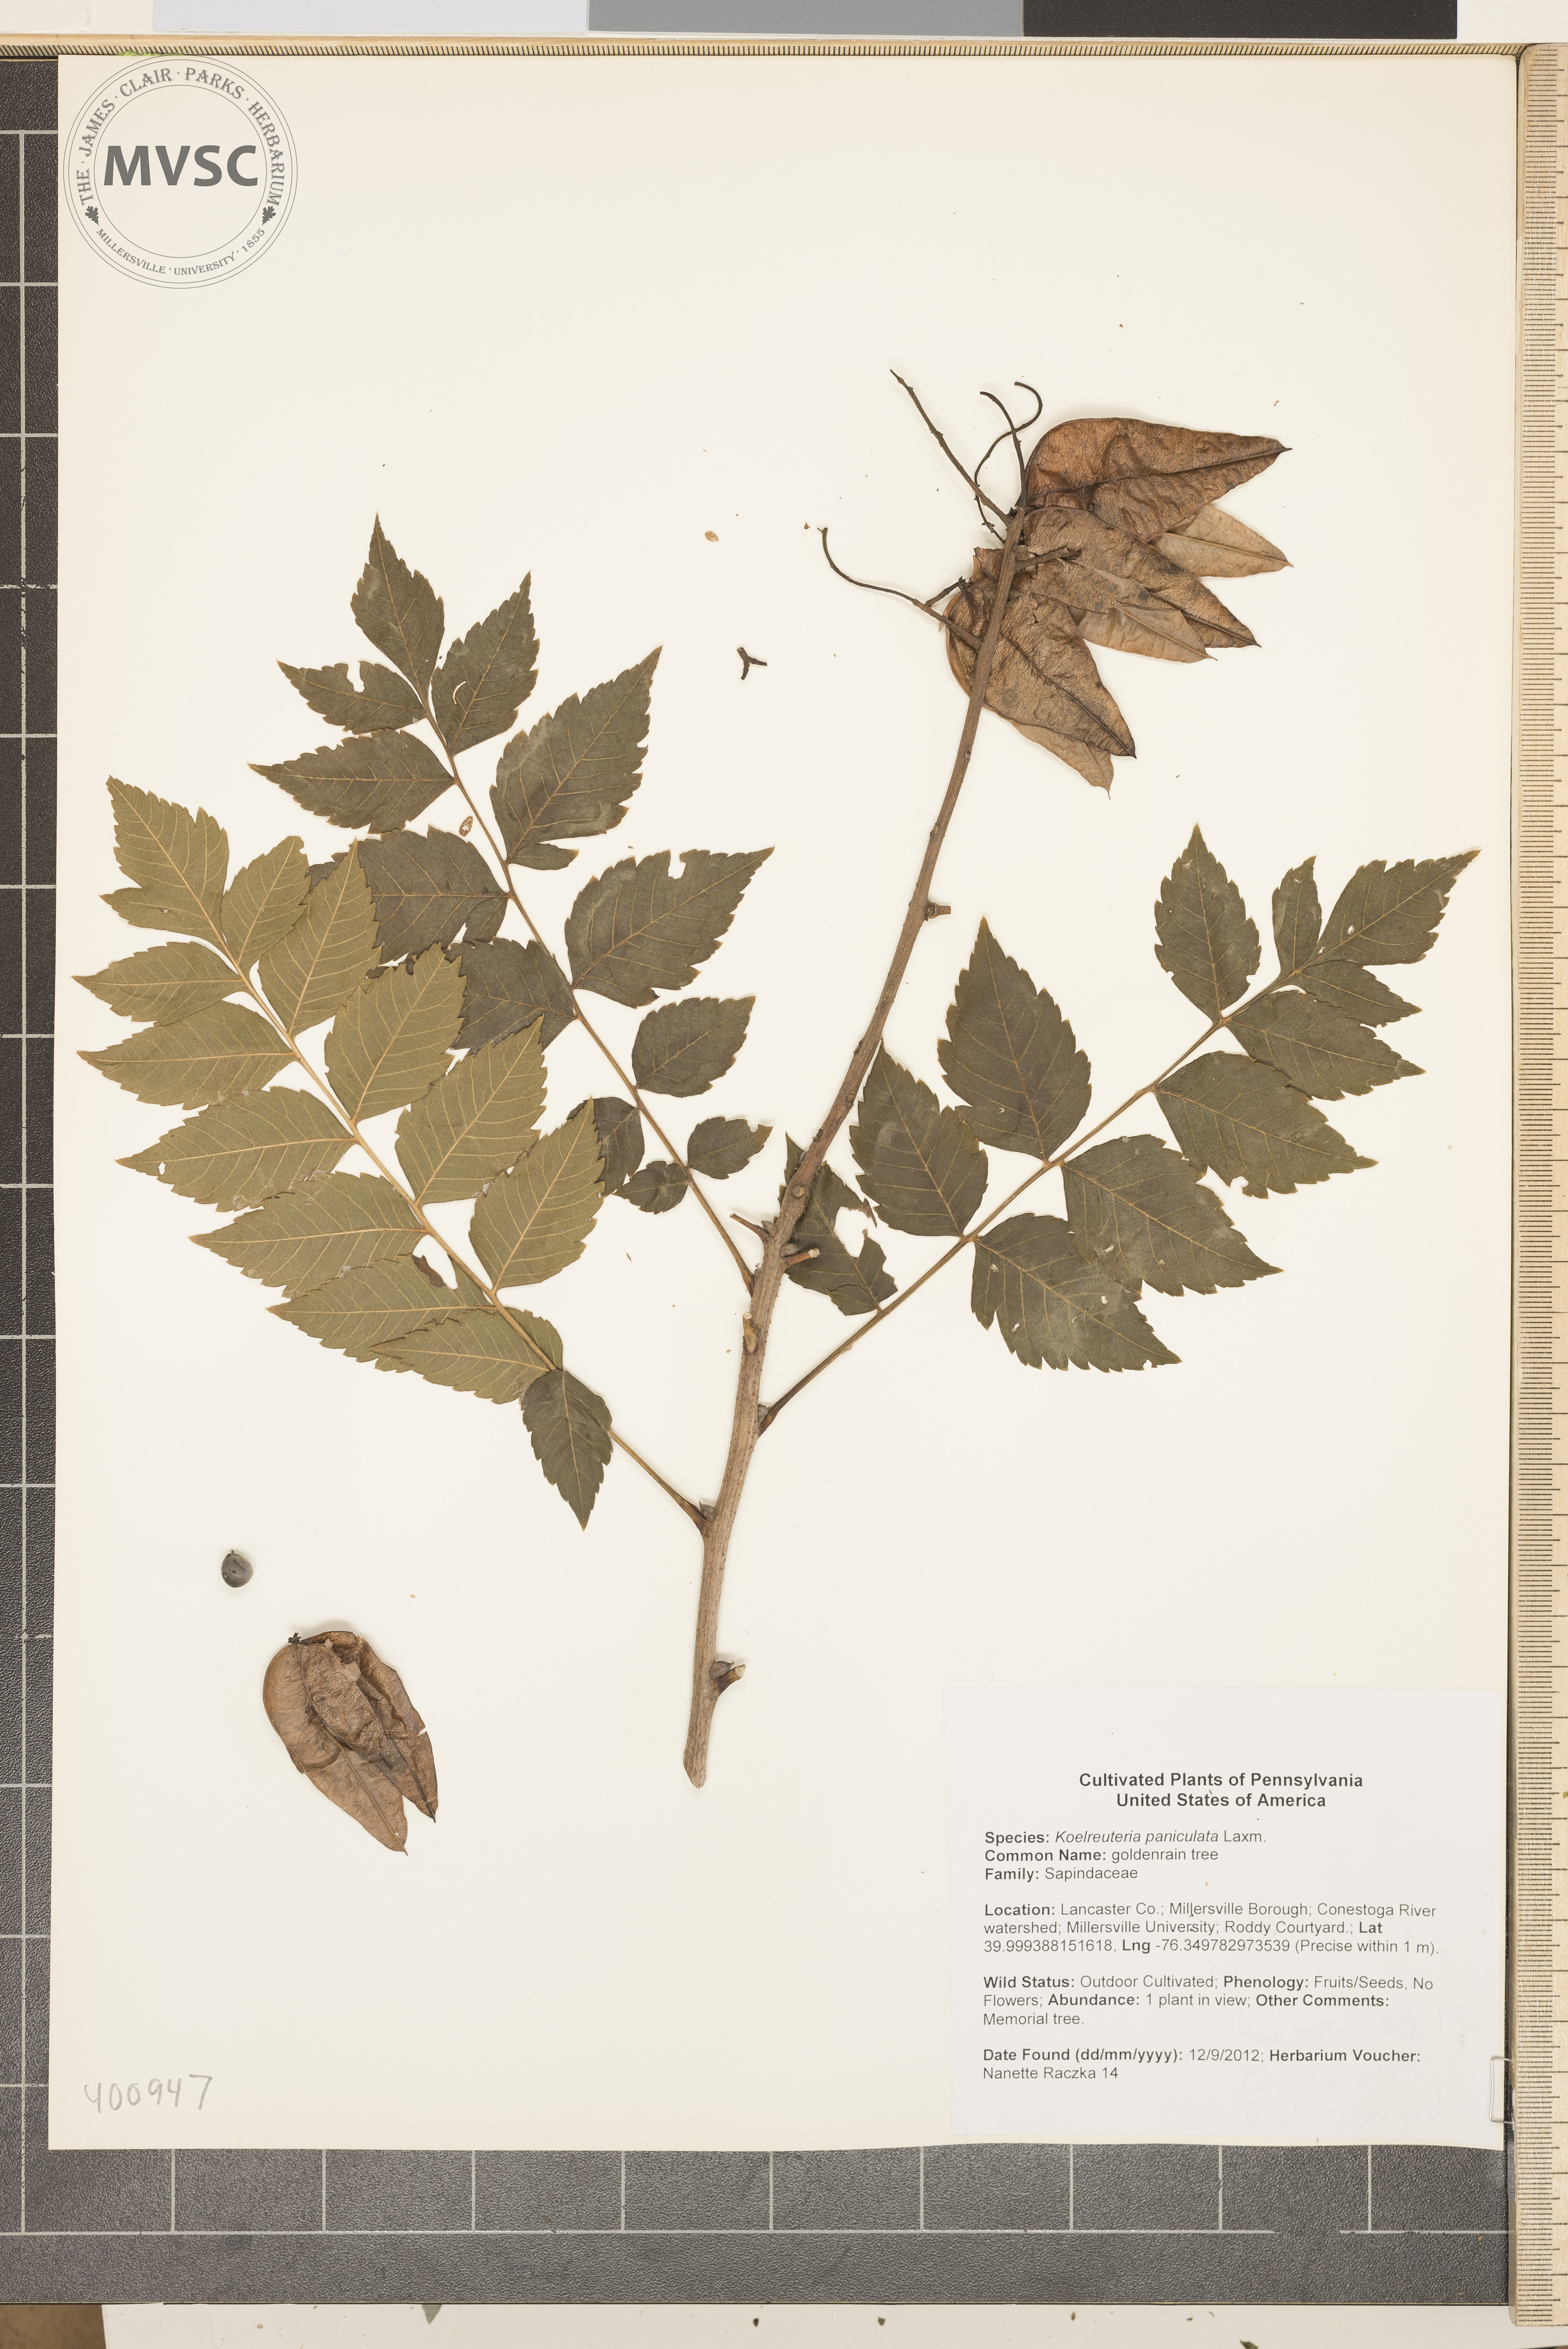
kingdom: Plantae
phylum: Tracheophyta
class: Magnoliopsida
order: Sapindales
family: Sapindaceae
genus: Koelreuteria
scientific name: Koelreuteria paniculata
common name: goldenrain tree
